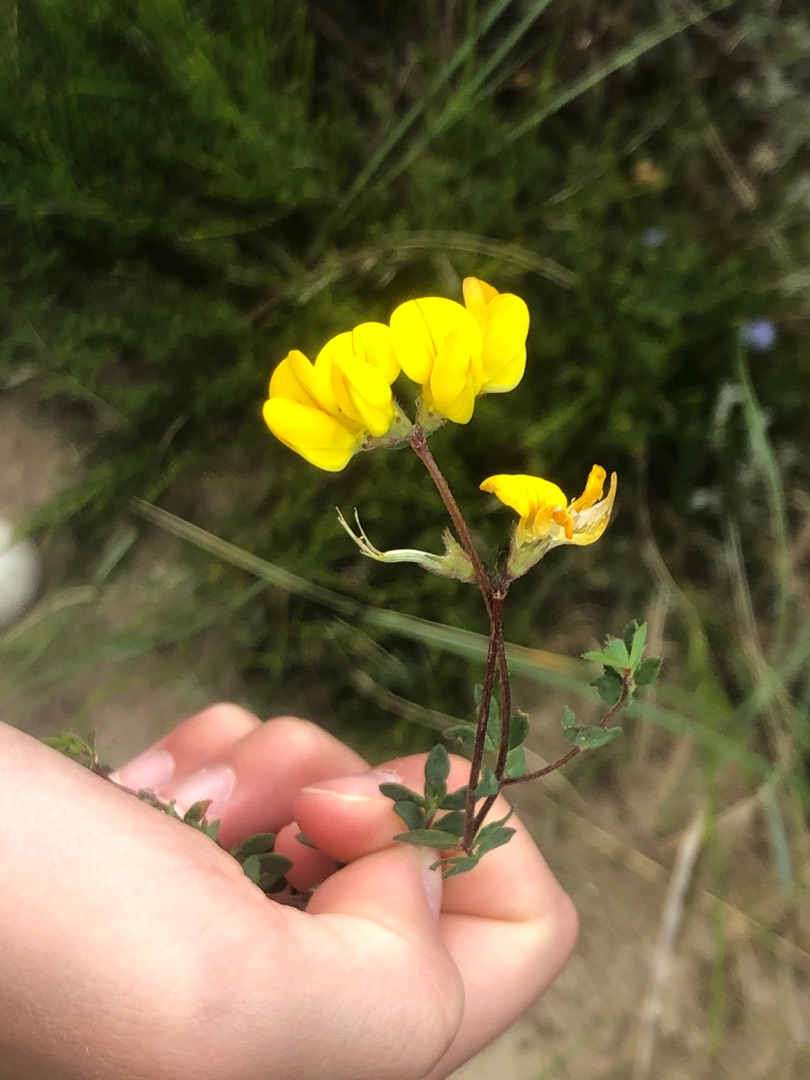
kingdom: Plantae
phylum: Tracheophyta
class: Magnoliopsida
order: Fabales
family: Fabaceae
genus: Lotus
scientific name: Lotus corniculatus
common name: Almindelig kællingetand
